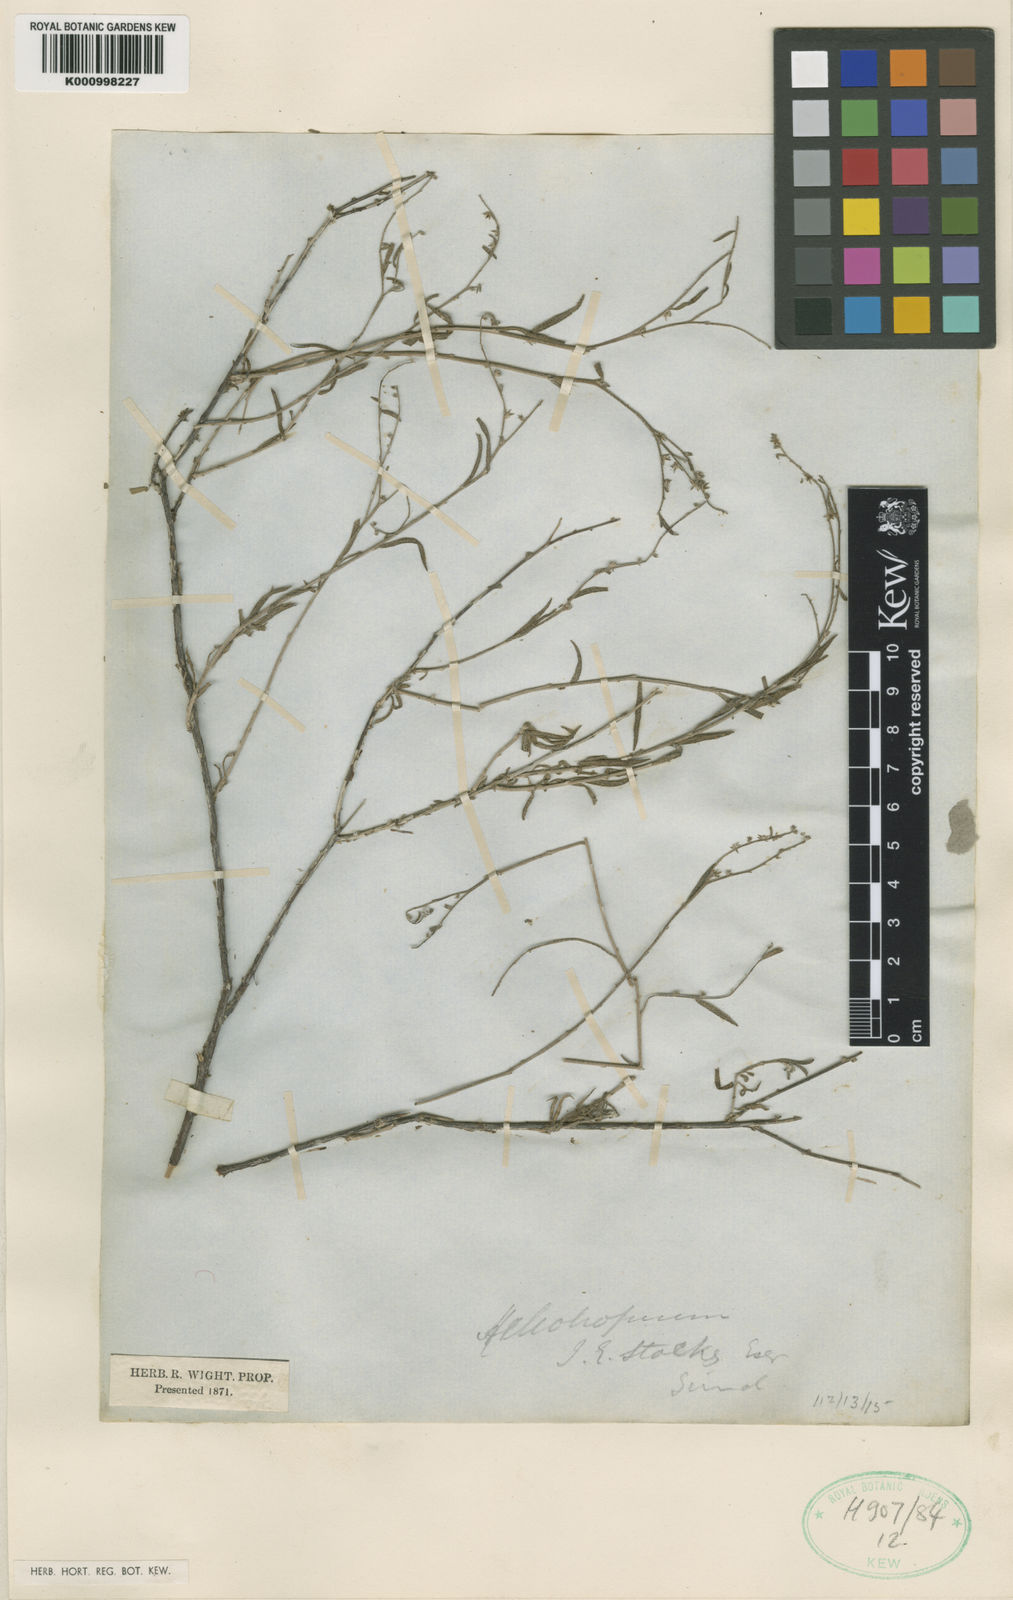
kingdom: Plantae
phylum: Tracheophyta
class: Magnoliopsida
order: Boraginales
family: Heliotropiaceae
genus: Euploca
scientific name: Euploca rariflora
